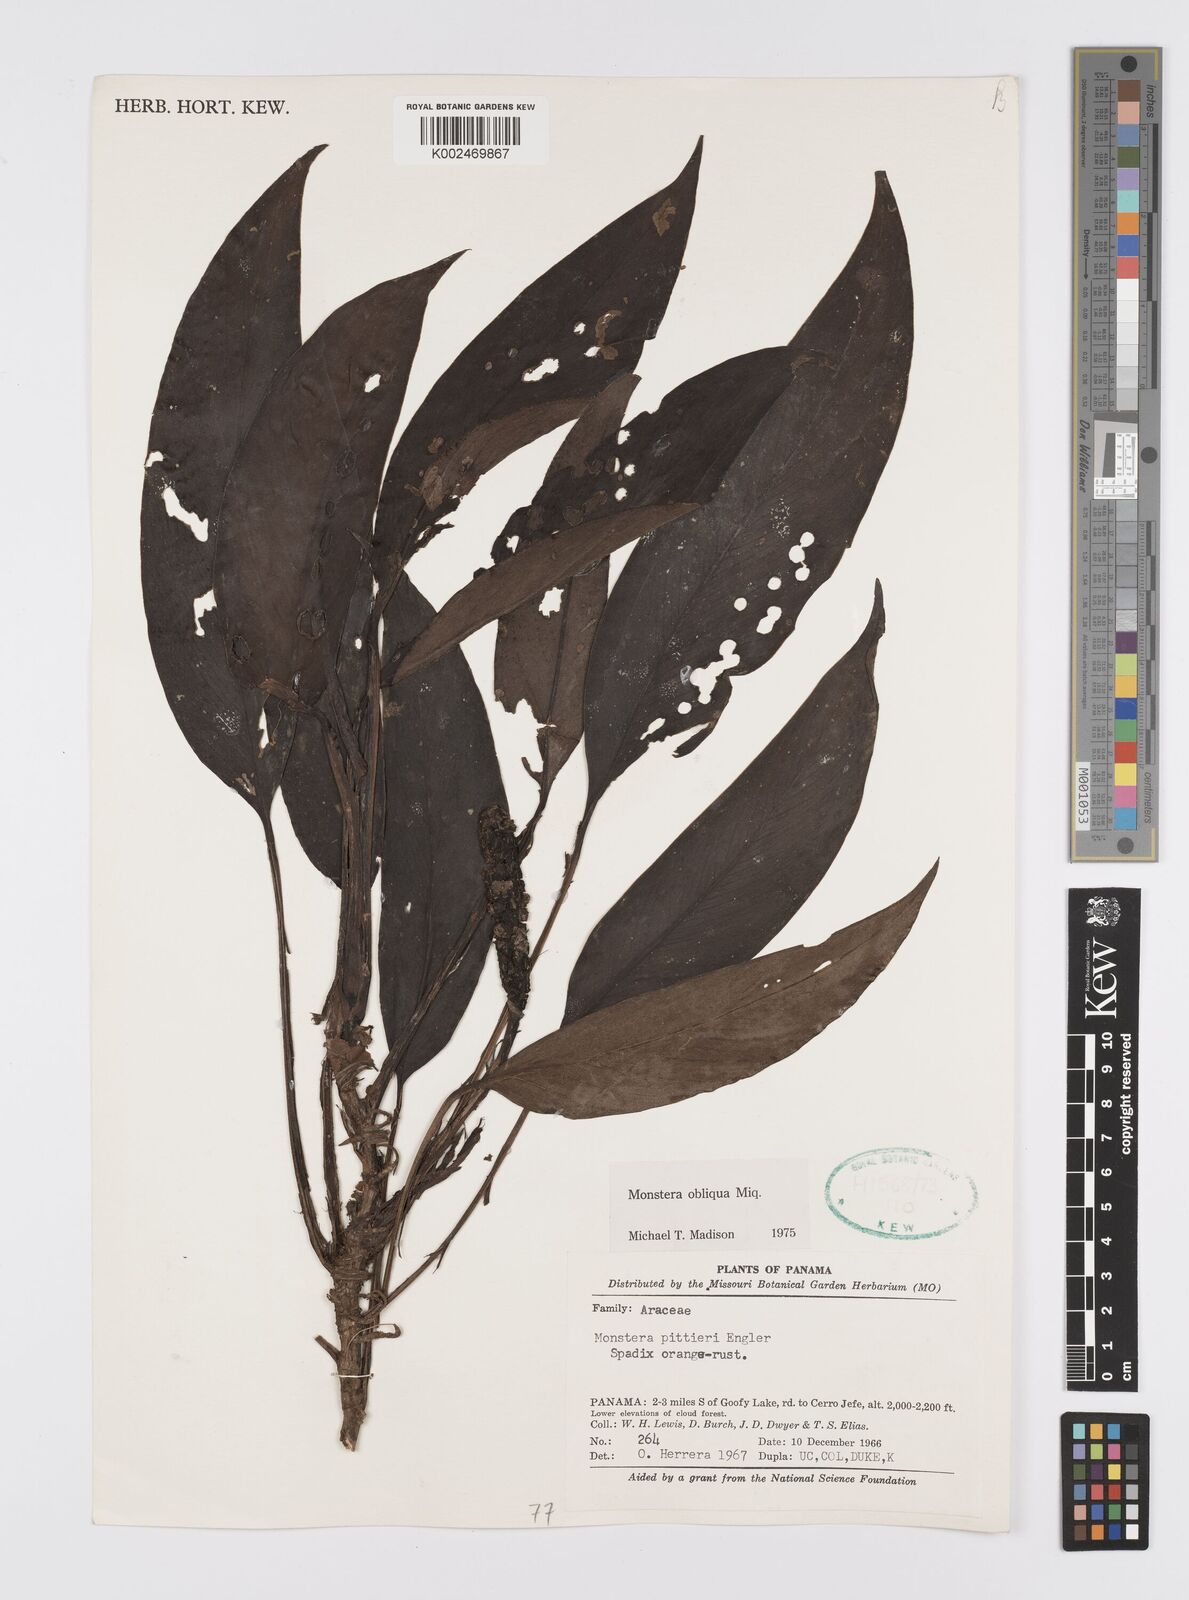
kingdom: Plantae
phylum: Tracheophyta
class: Liliopsida
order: Alismatales
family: Araceae
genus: Monstera
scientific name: Monstera obliqua
